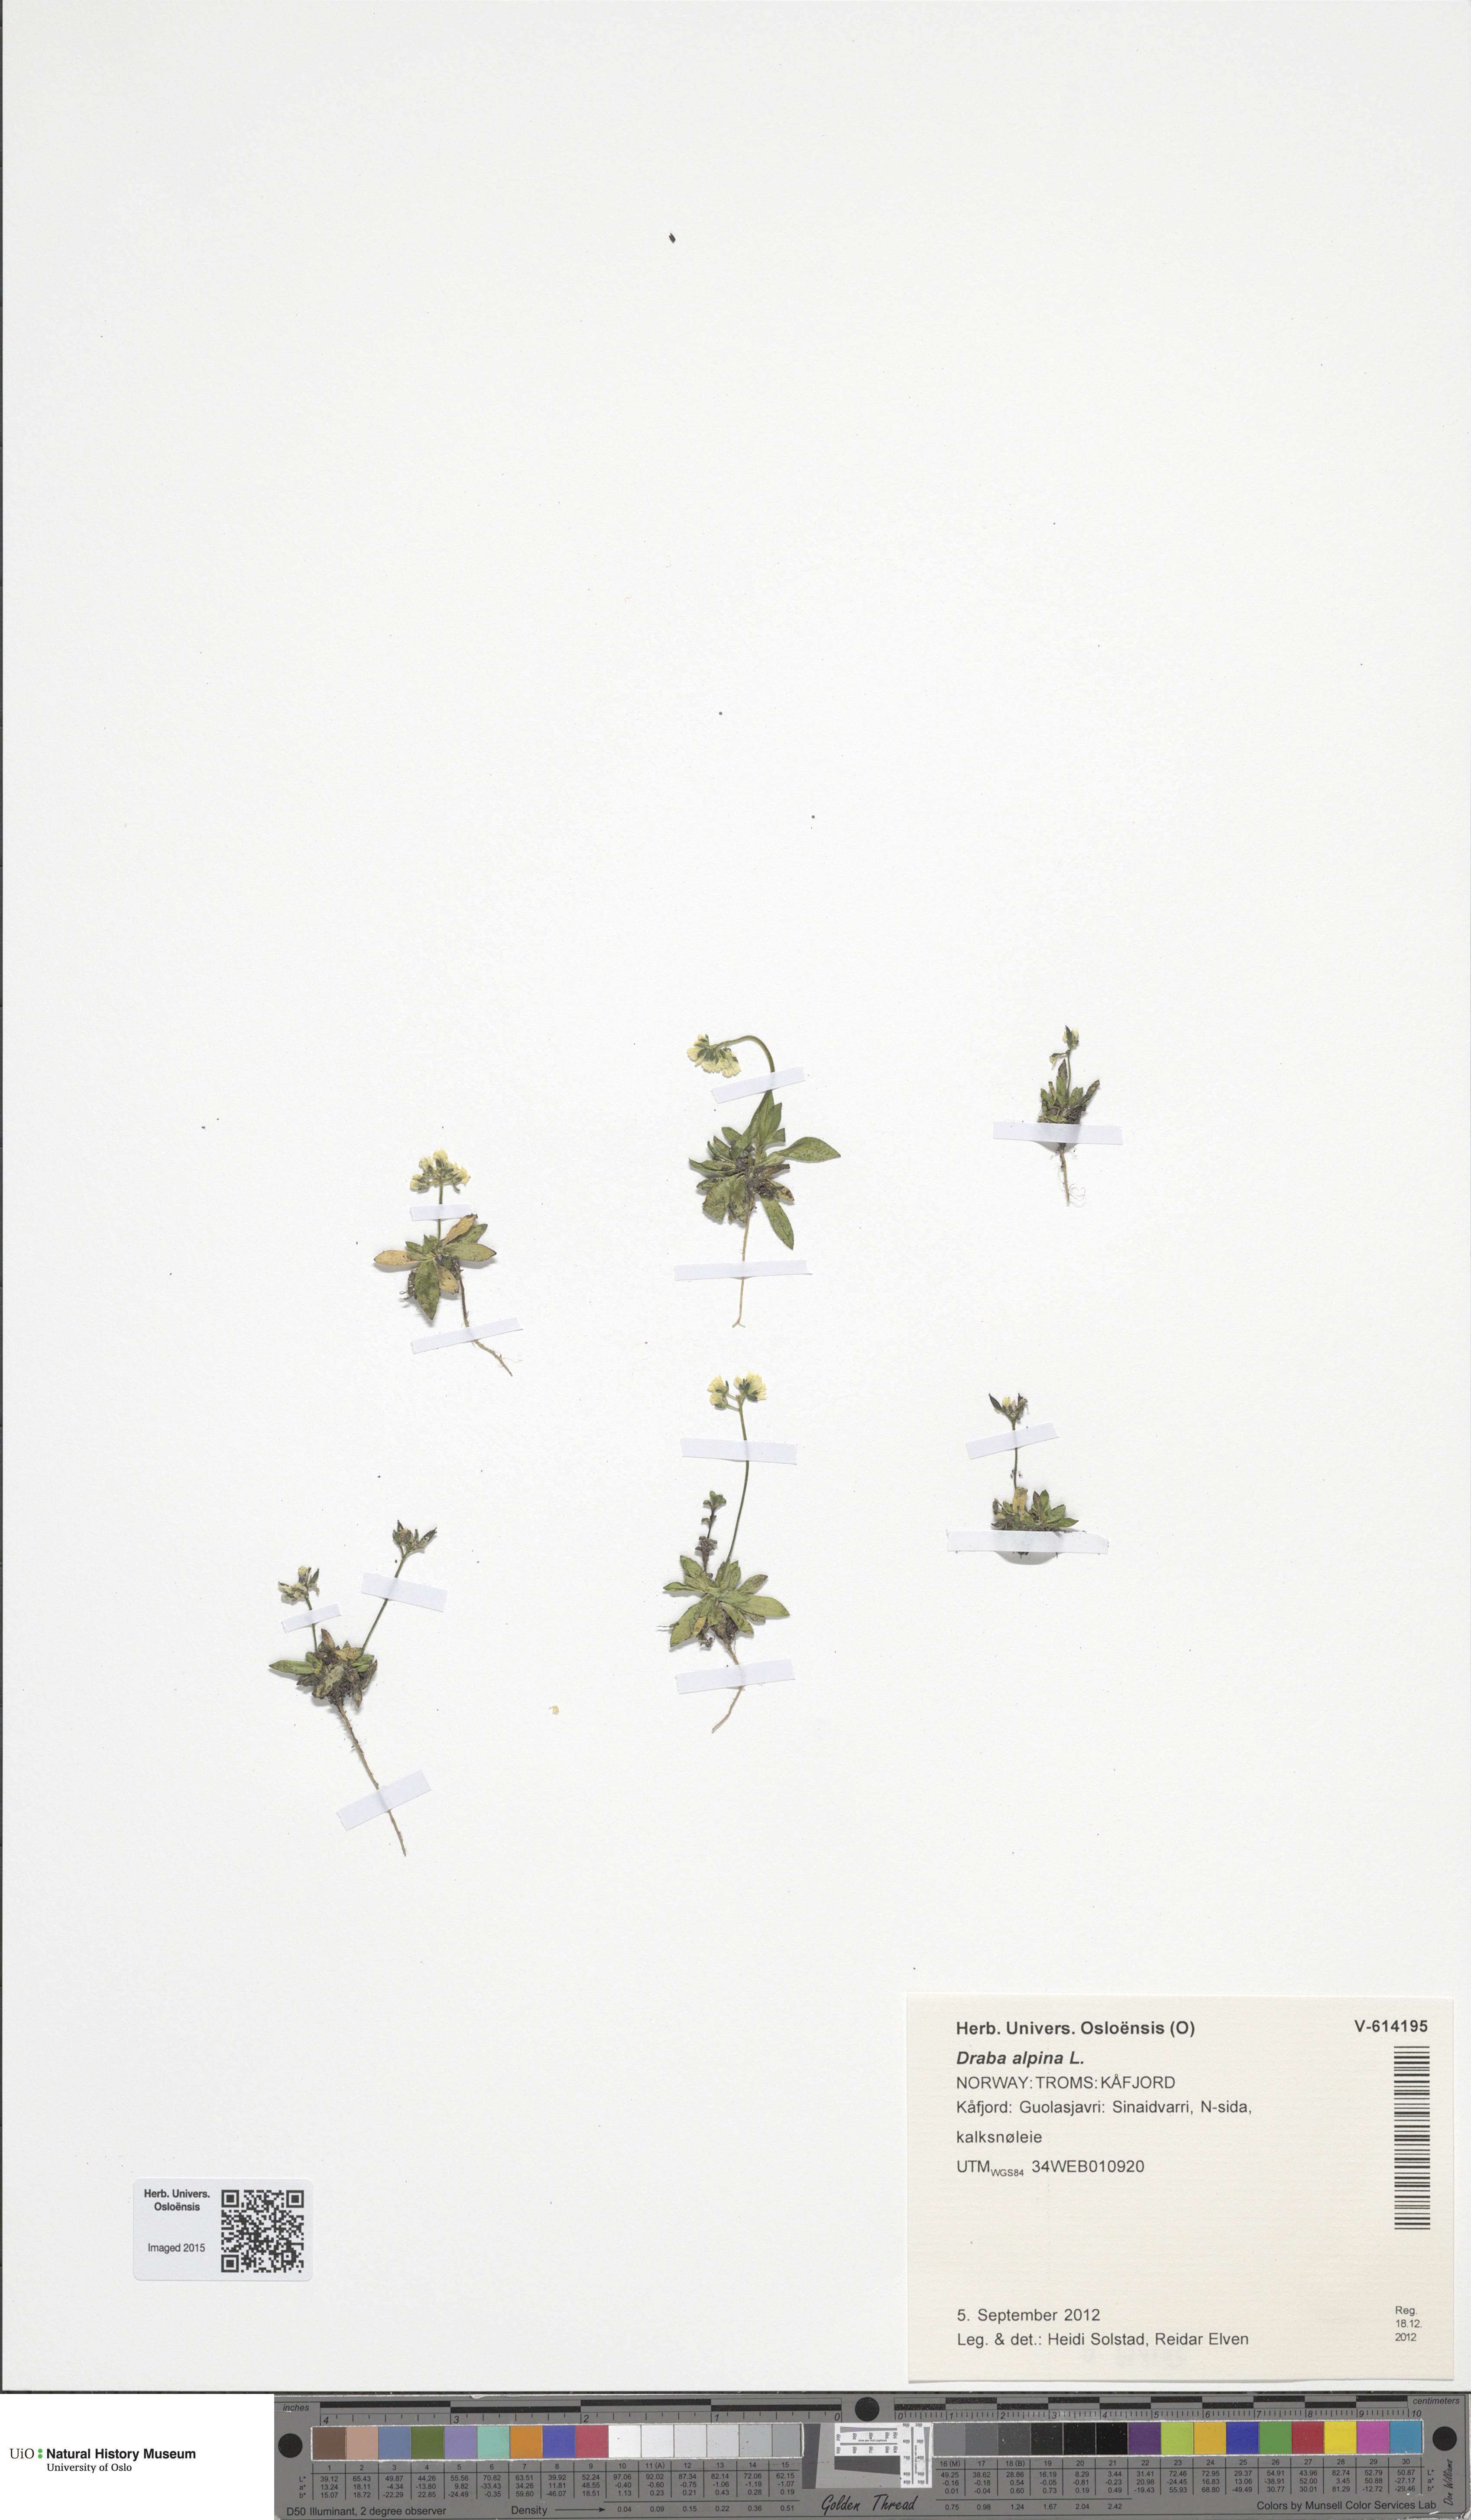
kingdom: Plantae
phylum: Tracheophyta
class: Magnoliopsida
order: Brassicales
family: Brassicaceae
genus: Draba
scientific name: Draba alpina
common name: Alpine draba
